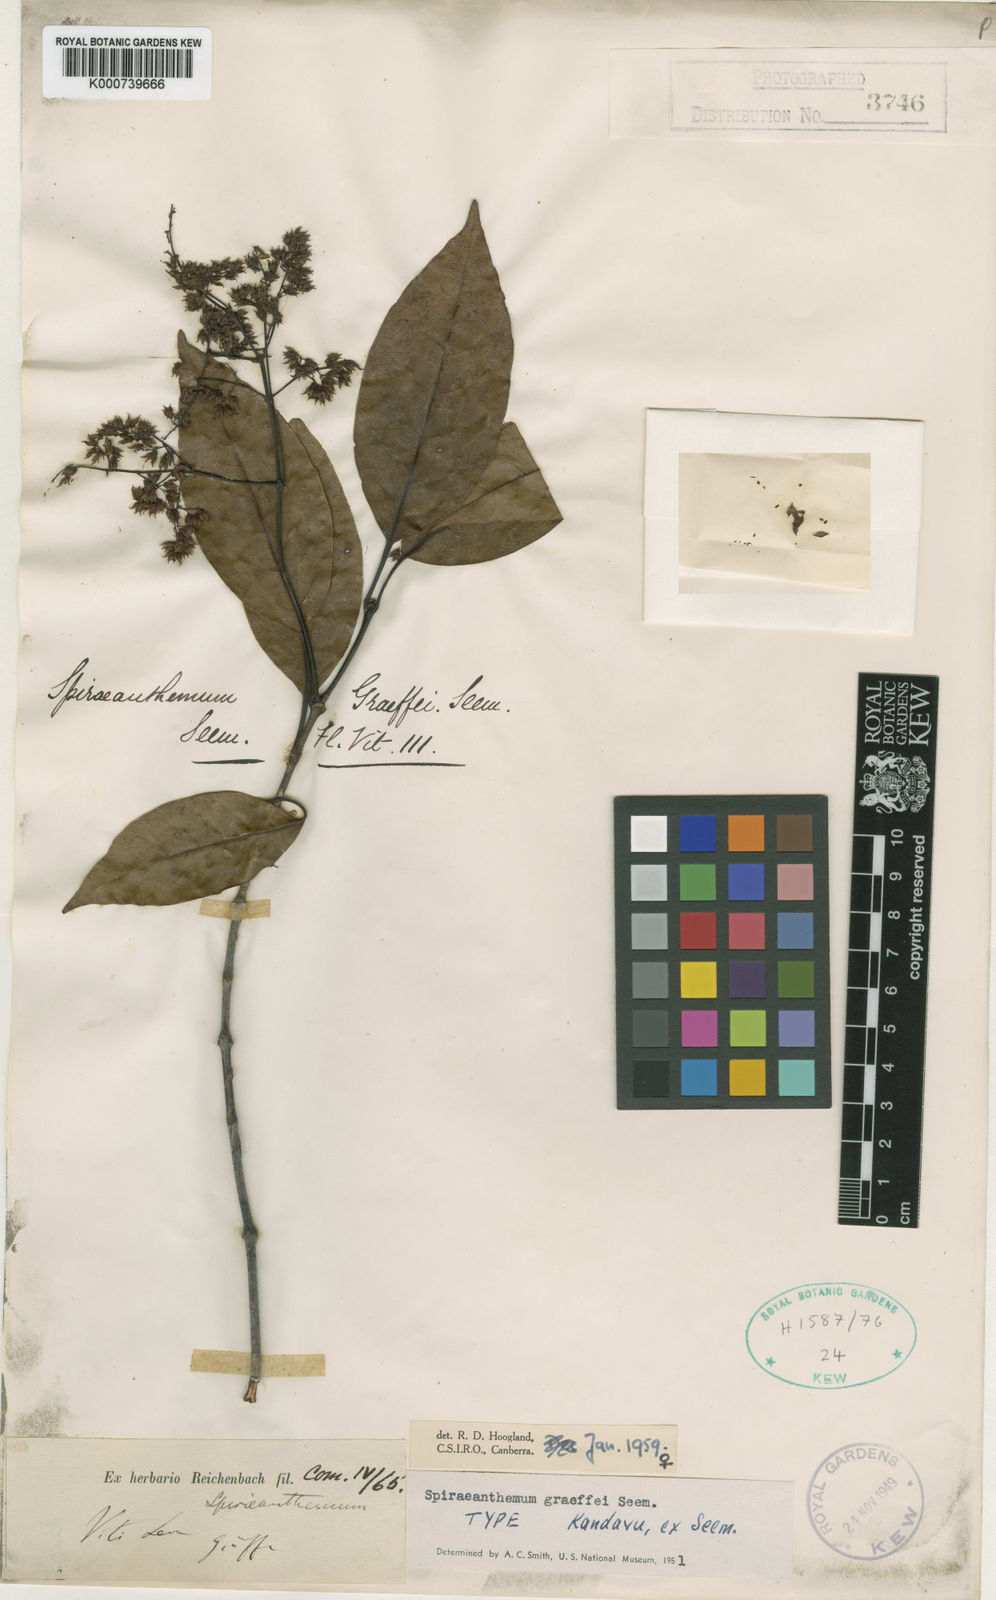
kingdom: Plantae
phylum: Tracheophyta
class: Magnoliopsida
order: Oxalidales
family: Cunoniaceae
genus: Spiraeanthemum
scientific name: Spiraeanthemum graeffei
